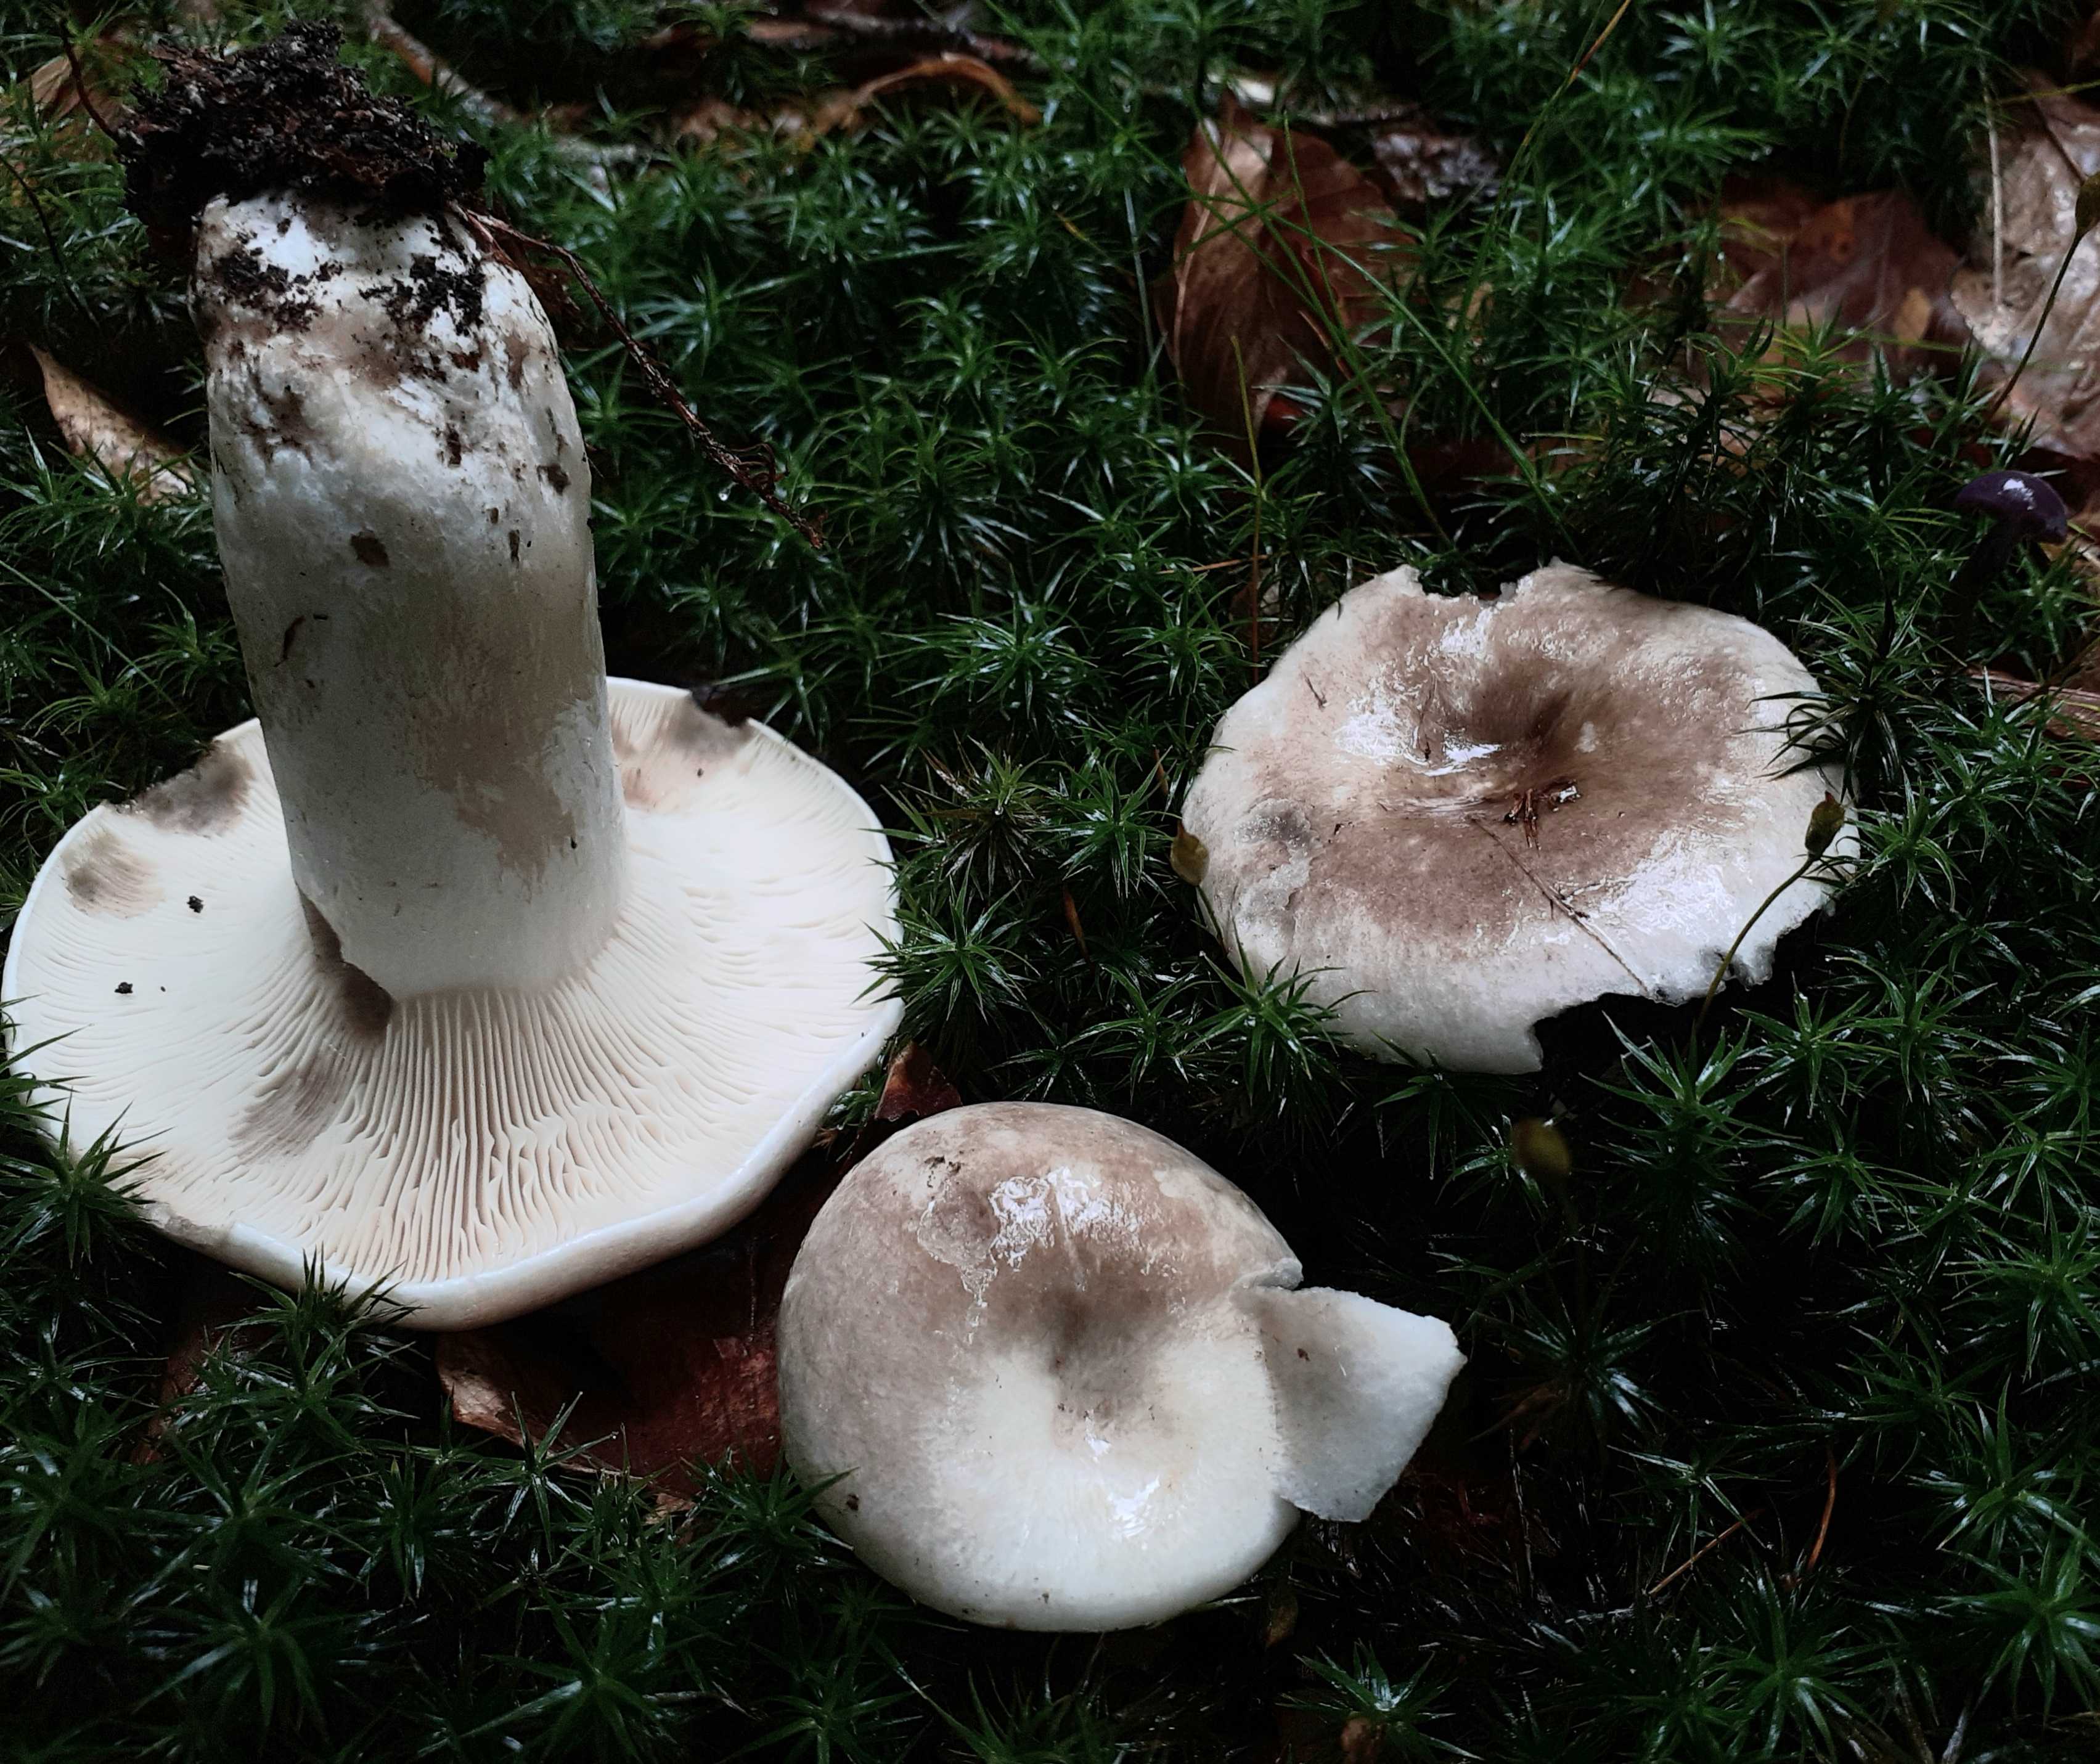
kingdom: Fungi
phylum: Basidiomycota
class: Agaricomycetes
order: Russulales
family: Russulaceae
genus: Russula
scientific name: Russula densifolia
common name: tætbladet skørhat
